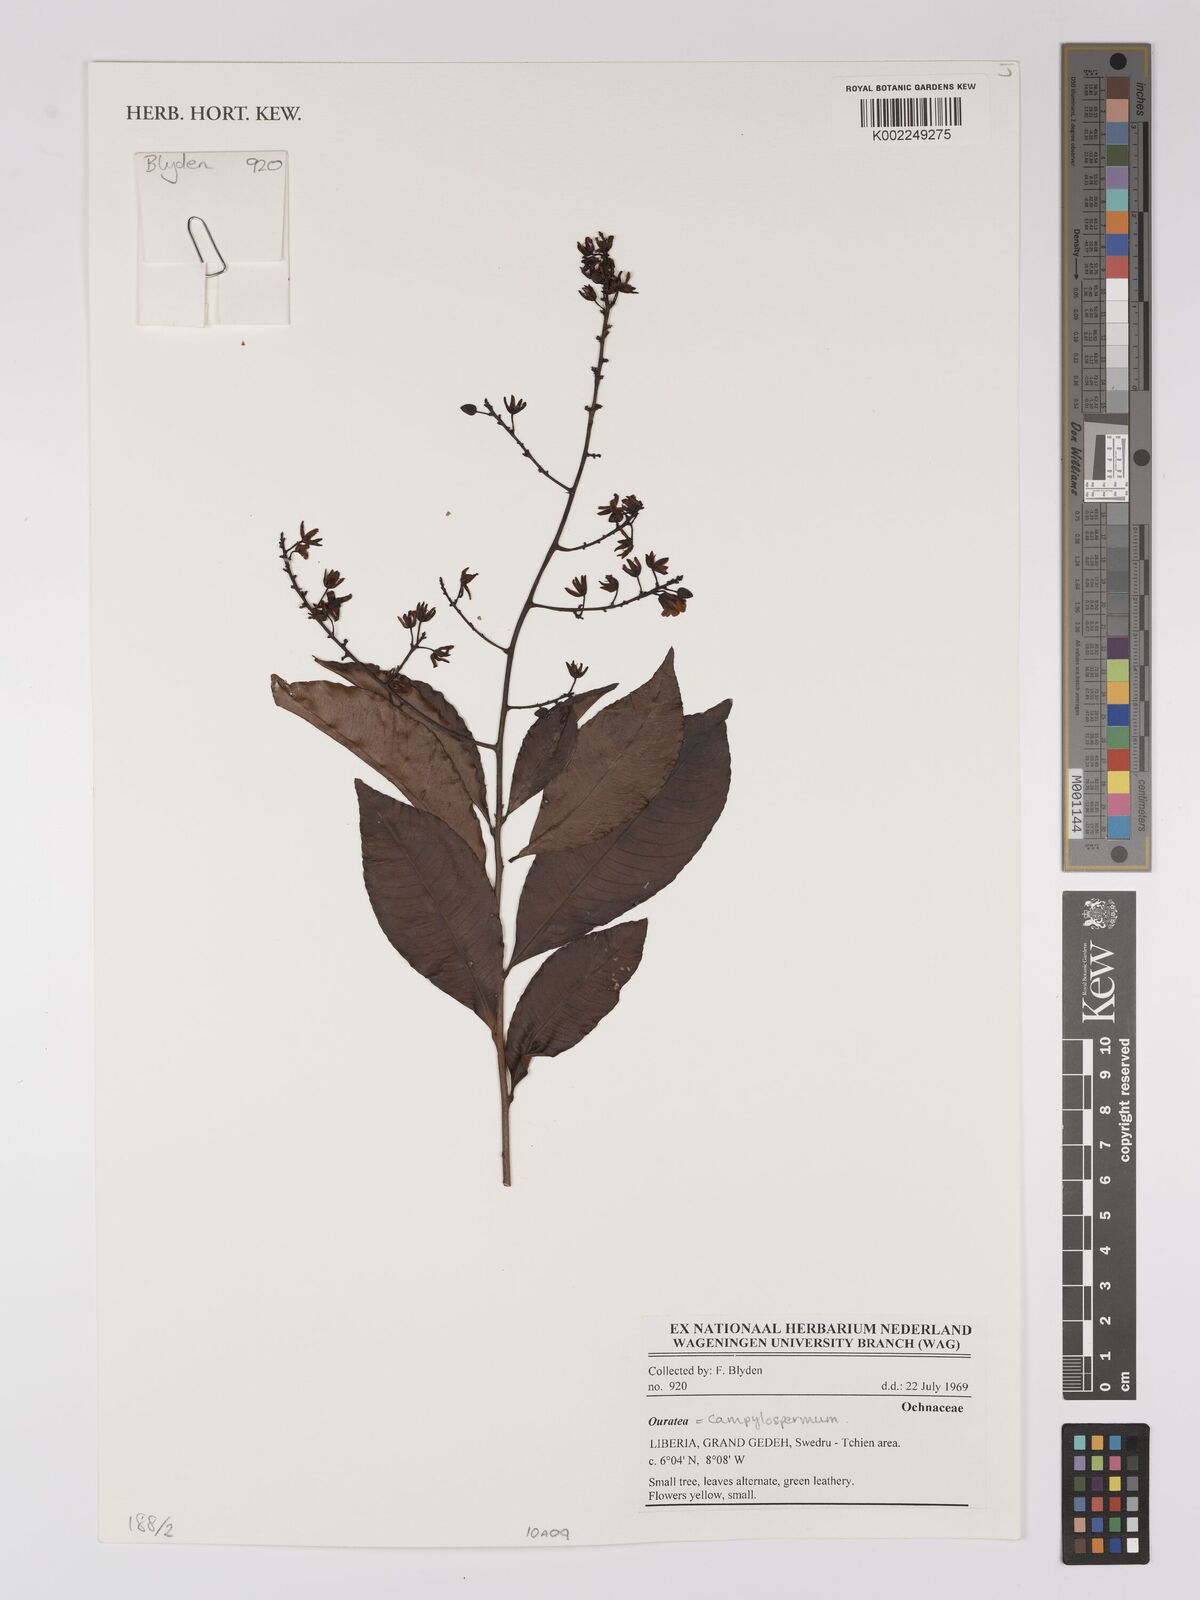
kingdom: Plantae
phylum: Tracheophyta
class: Magnoliopsida
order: Malpighiales
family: Ochnaceae
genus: Campylospermum
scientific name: Campylospermum
